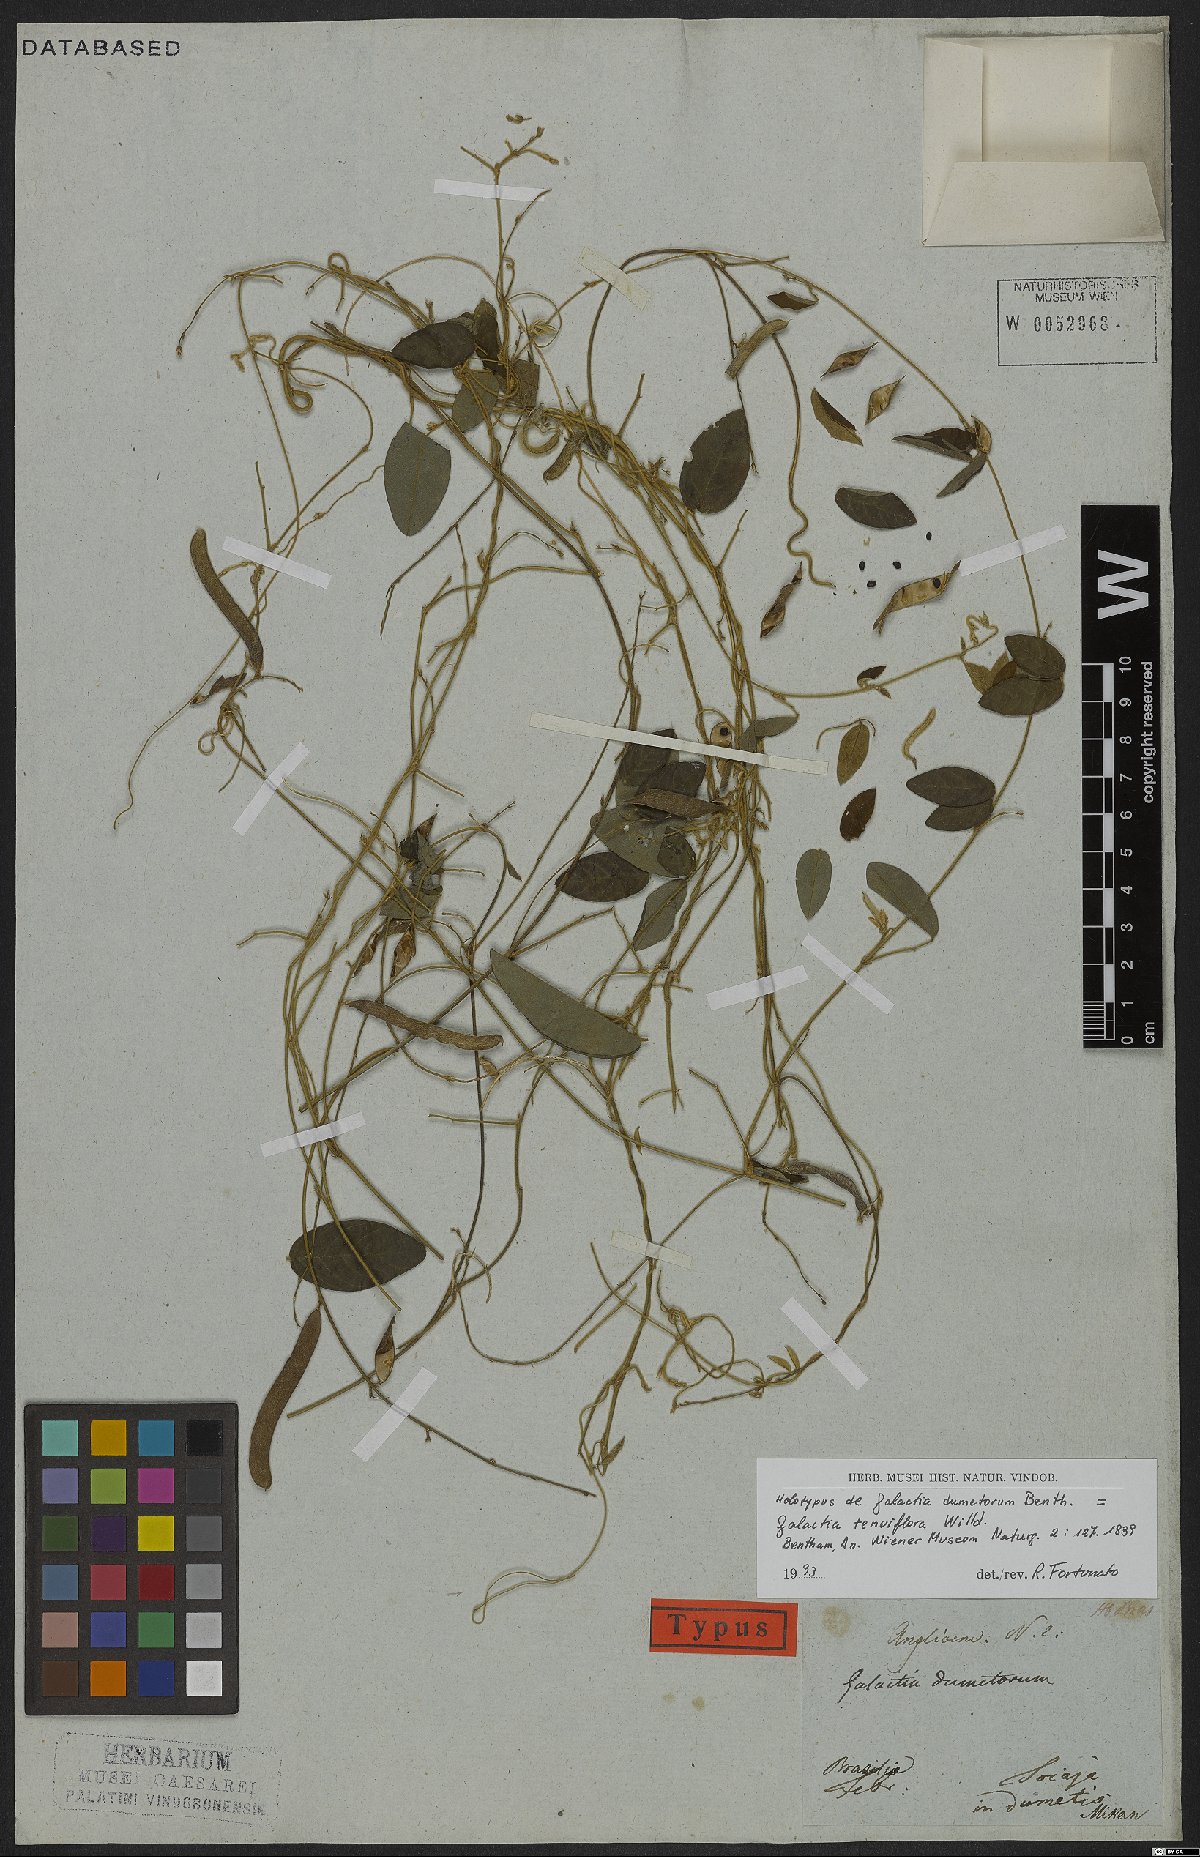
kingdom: Plantae
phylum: Tracheophyta
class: Magnoliopsida
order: Fabales
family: Fabaceae
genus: Galactia
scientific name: Galactia striata
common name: Florida hammock milkpea
